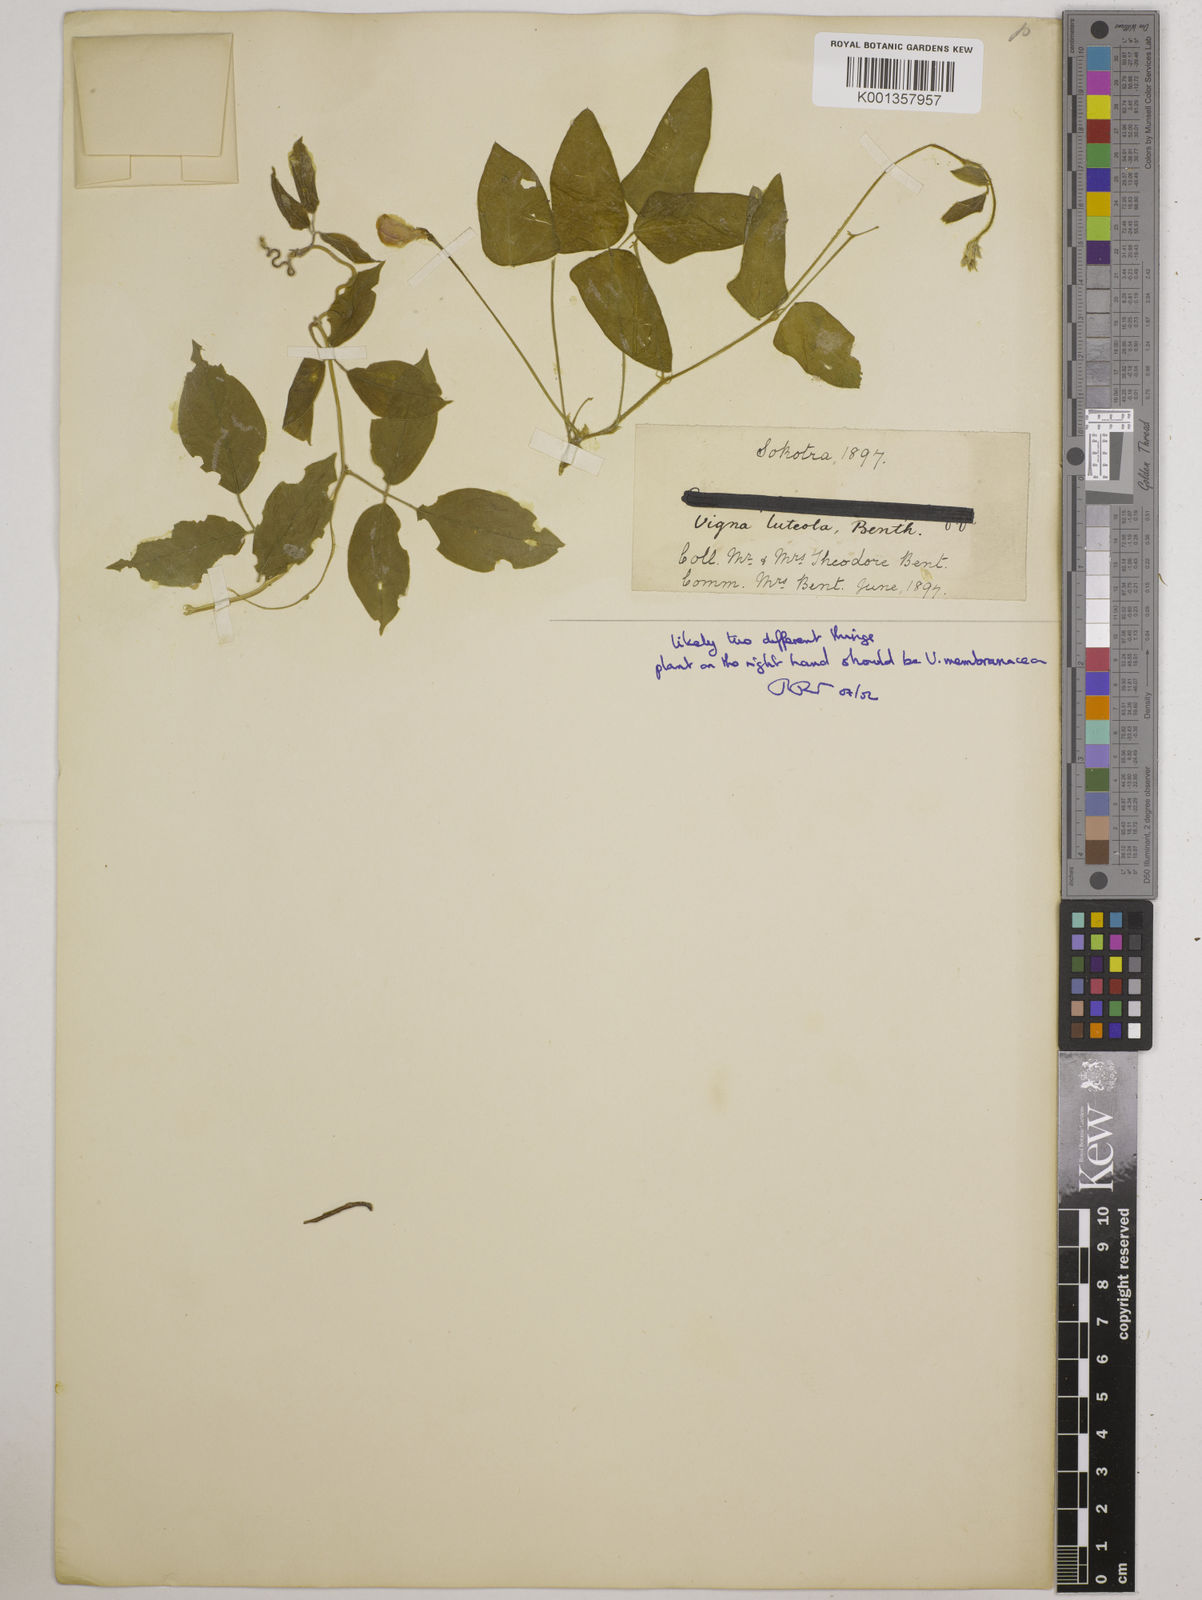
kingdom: Plantae
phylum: Tracheophyta
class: Magnoliopsida
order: Fabales
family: Fabaceae
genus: Vigna
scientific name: Vigna luteola
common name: Hairypod cowpea
